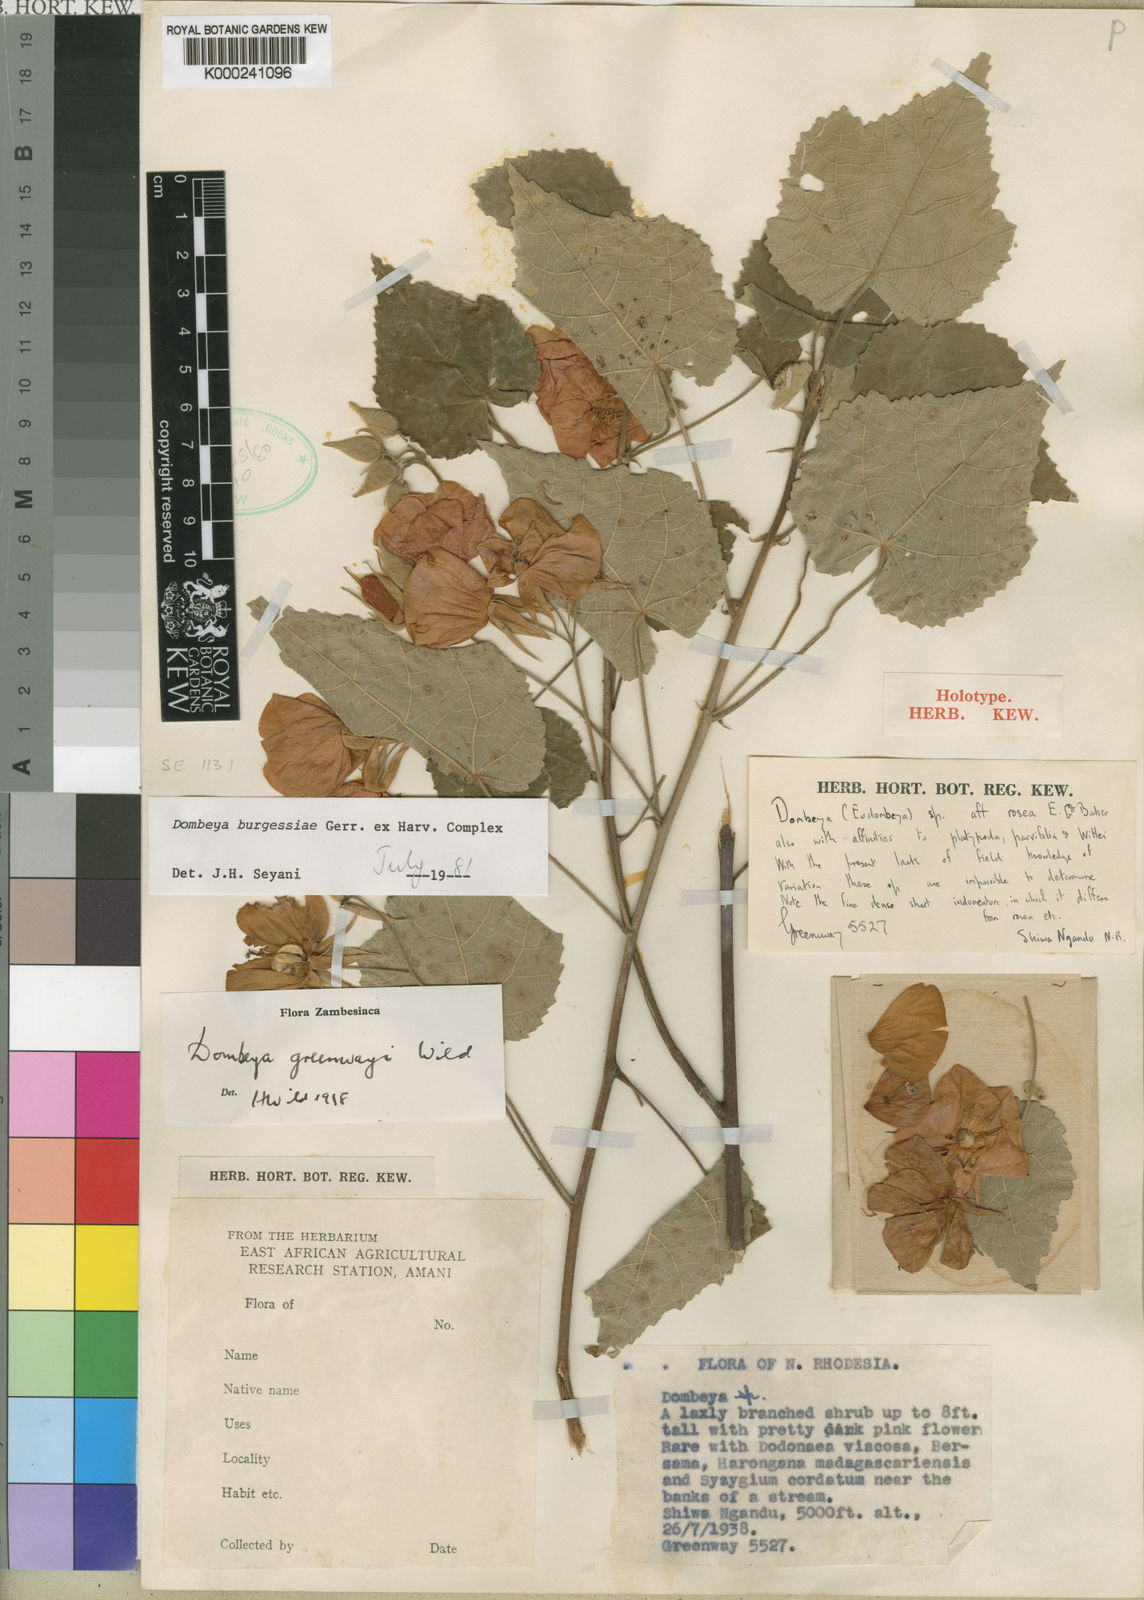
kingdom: Plantae
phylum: Tracheophyta
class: Magnoliopsida
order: Malvales
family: Malvaceae
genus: Dombeya
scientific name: Dombeya burgessiae
